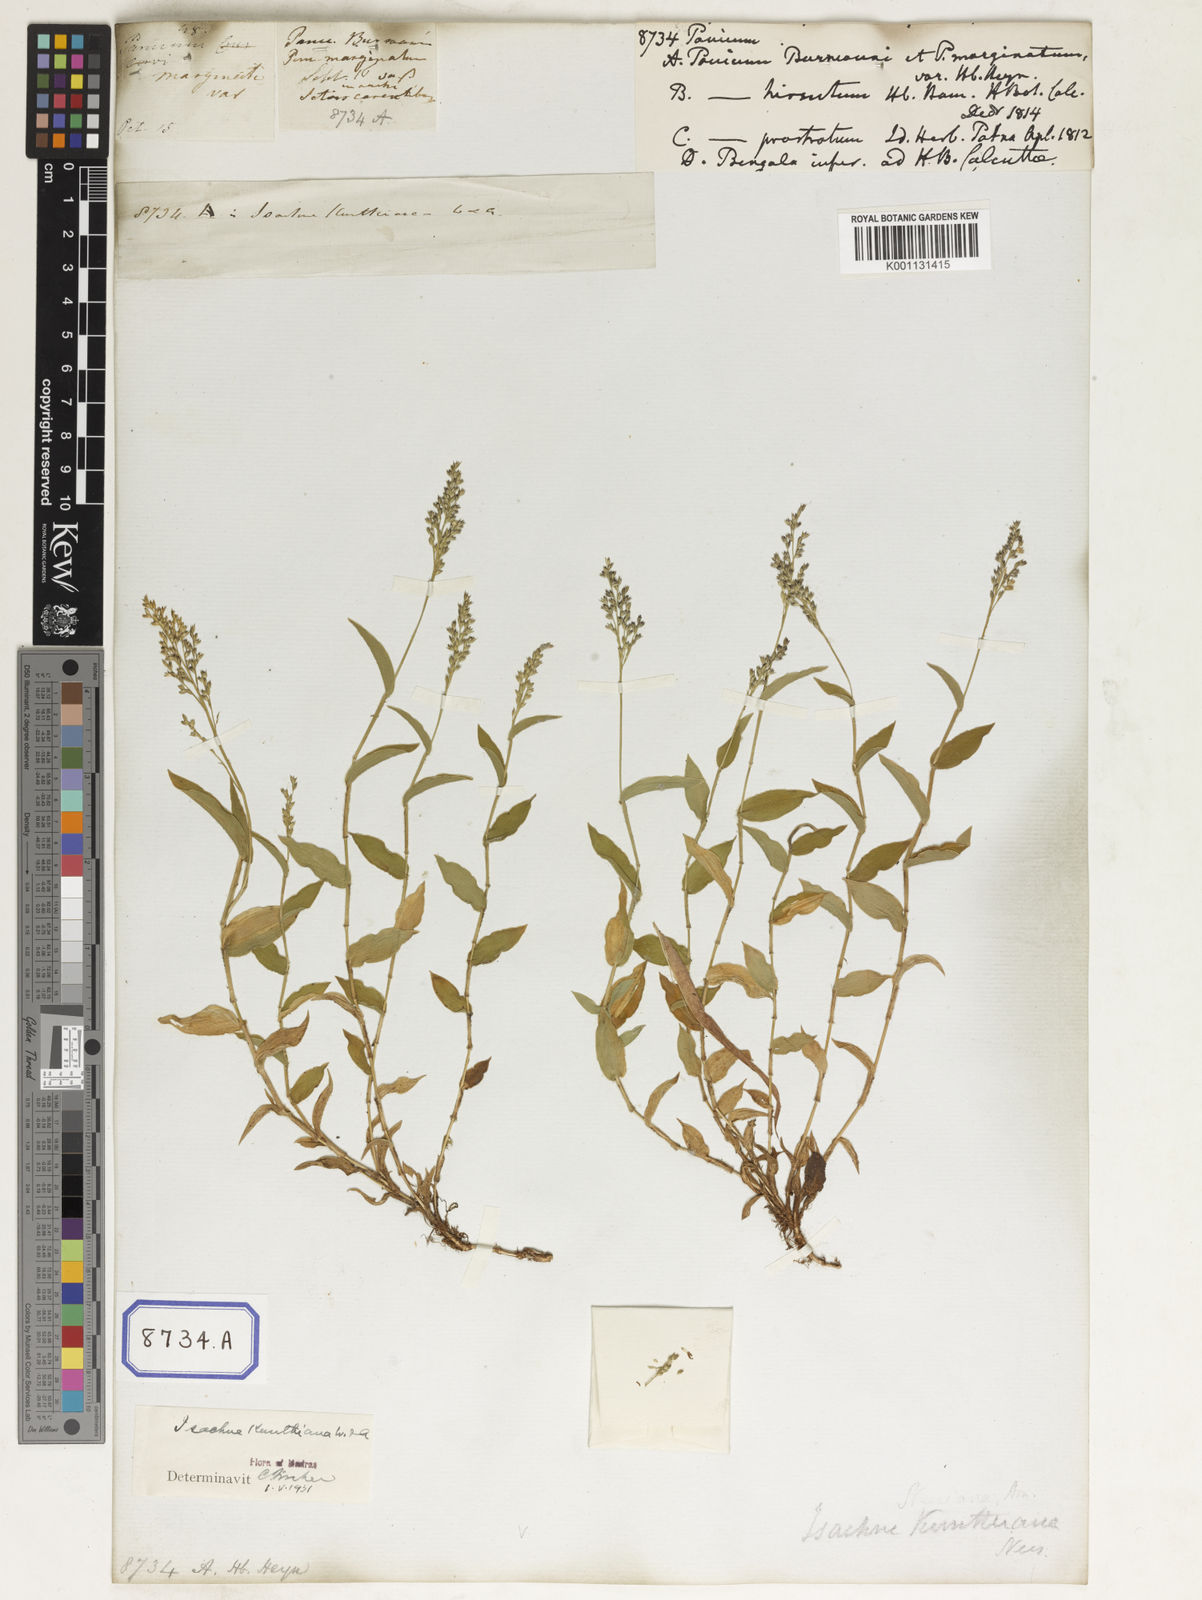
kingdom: Plantae
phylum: Tracheophyta
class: Liliopsida
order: Poales
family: Poaceae
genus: Panicum
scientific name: Panicum
